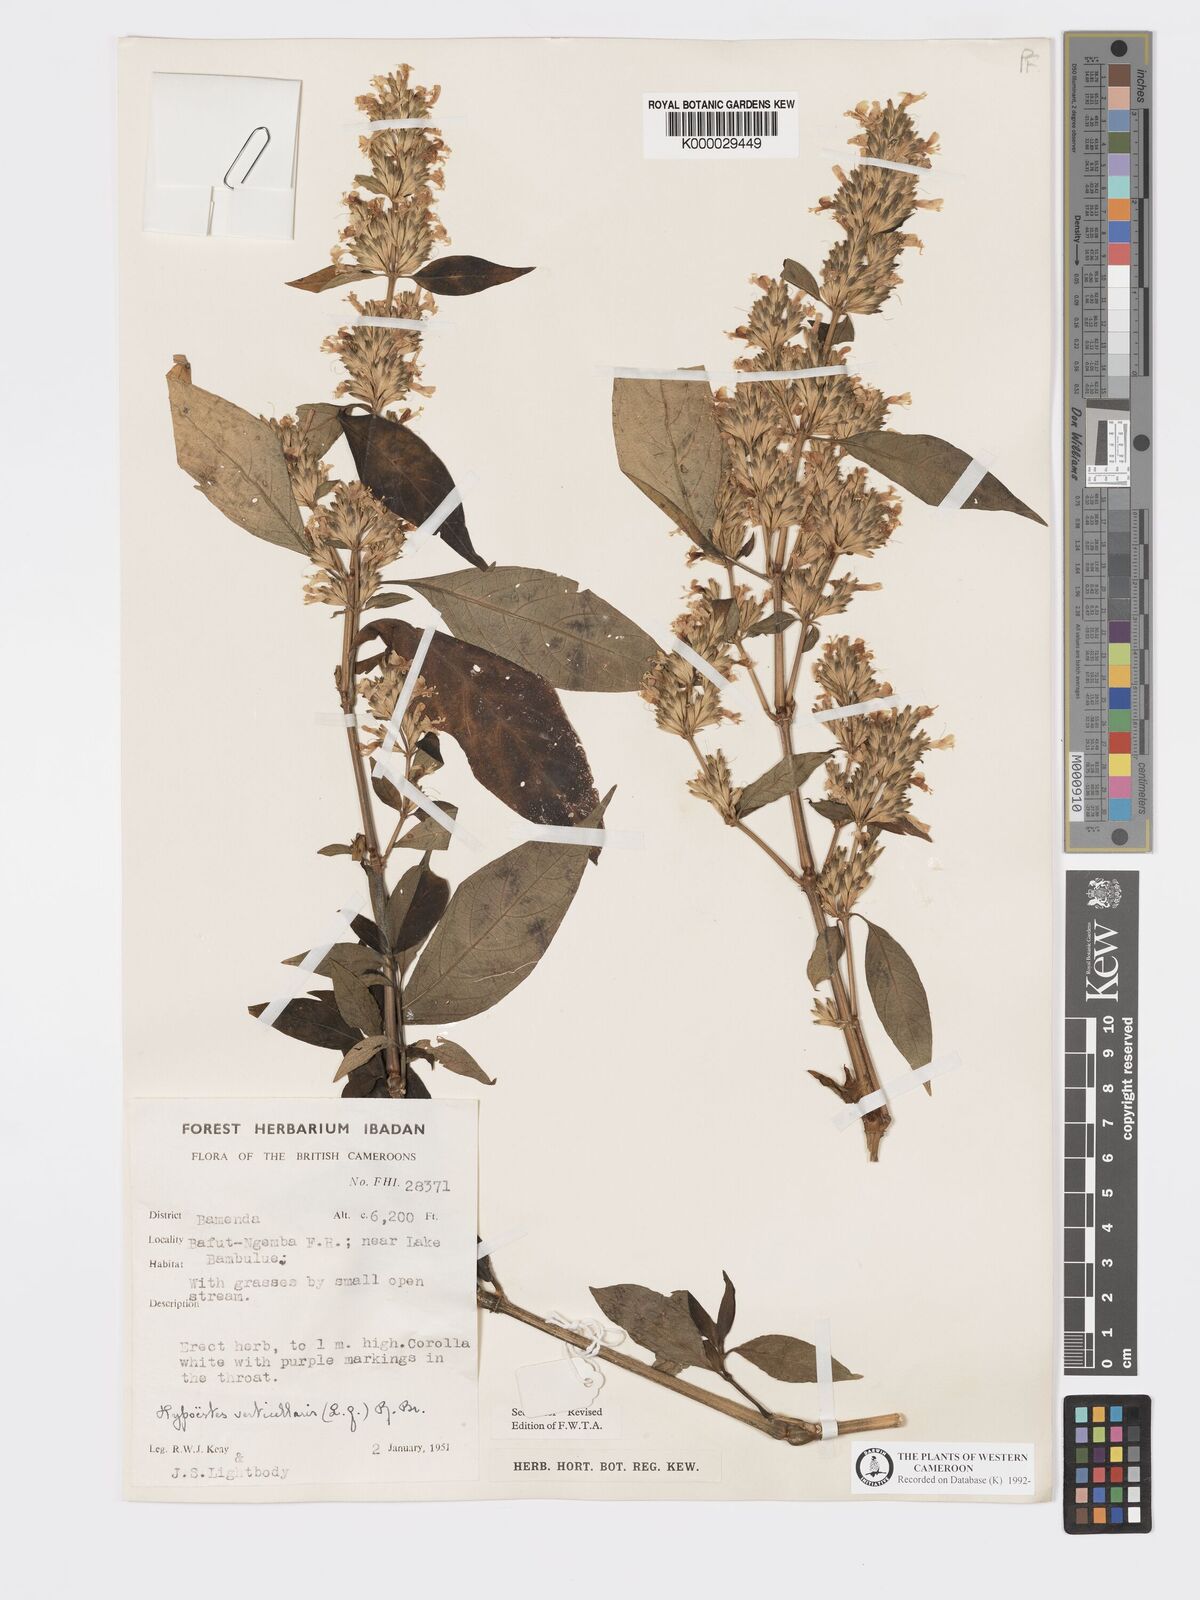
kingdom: Plantae
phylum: Tracheophyta
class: Magnoliopsida
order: Lamiales
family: Acanthaceae
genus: Hypoestes
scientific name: Hypoestes
